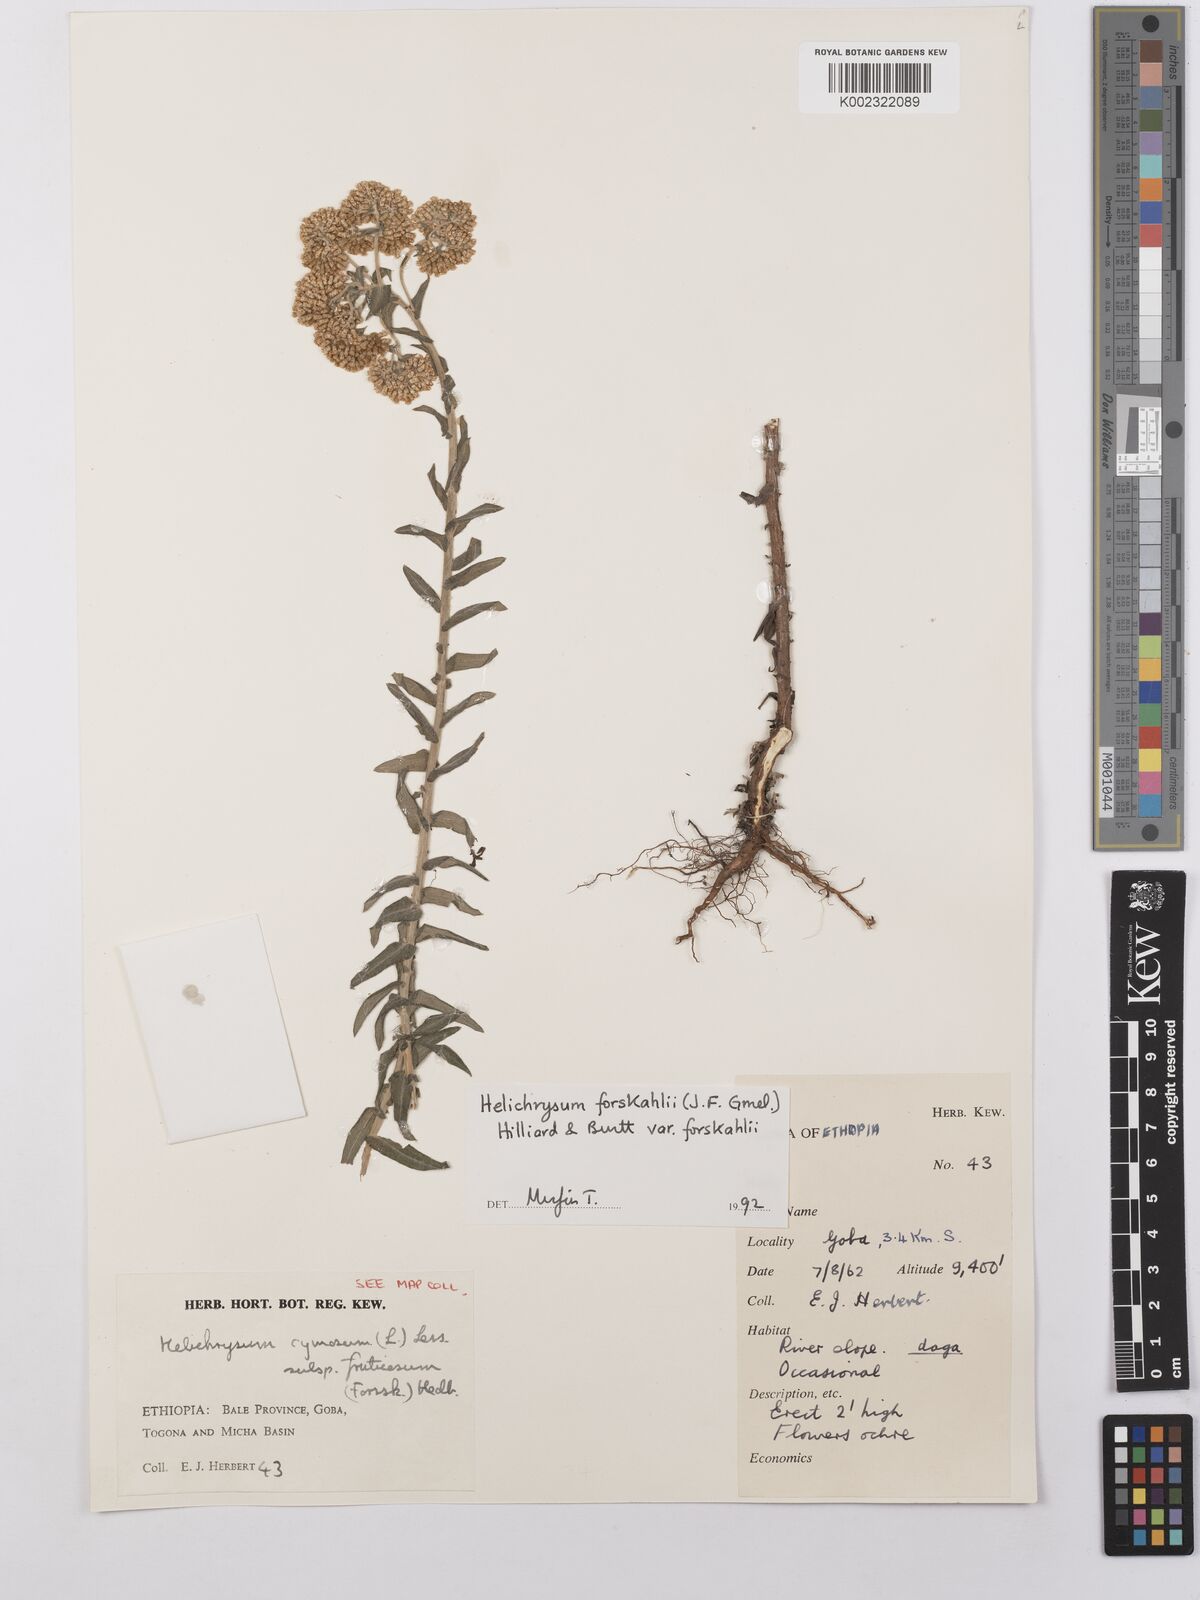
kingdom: Plantae
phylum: Tracheophyta
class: Magnoliopsida
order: Asterales
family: Asteraceae
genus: Helichrysum
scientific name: Helichrysum forskahlii
